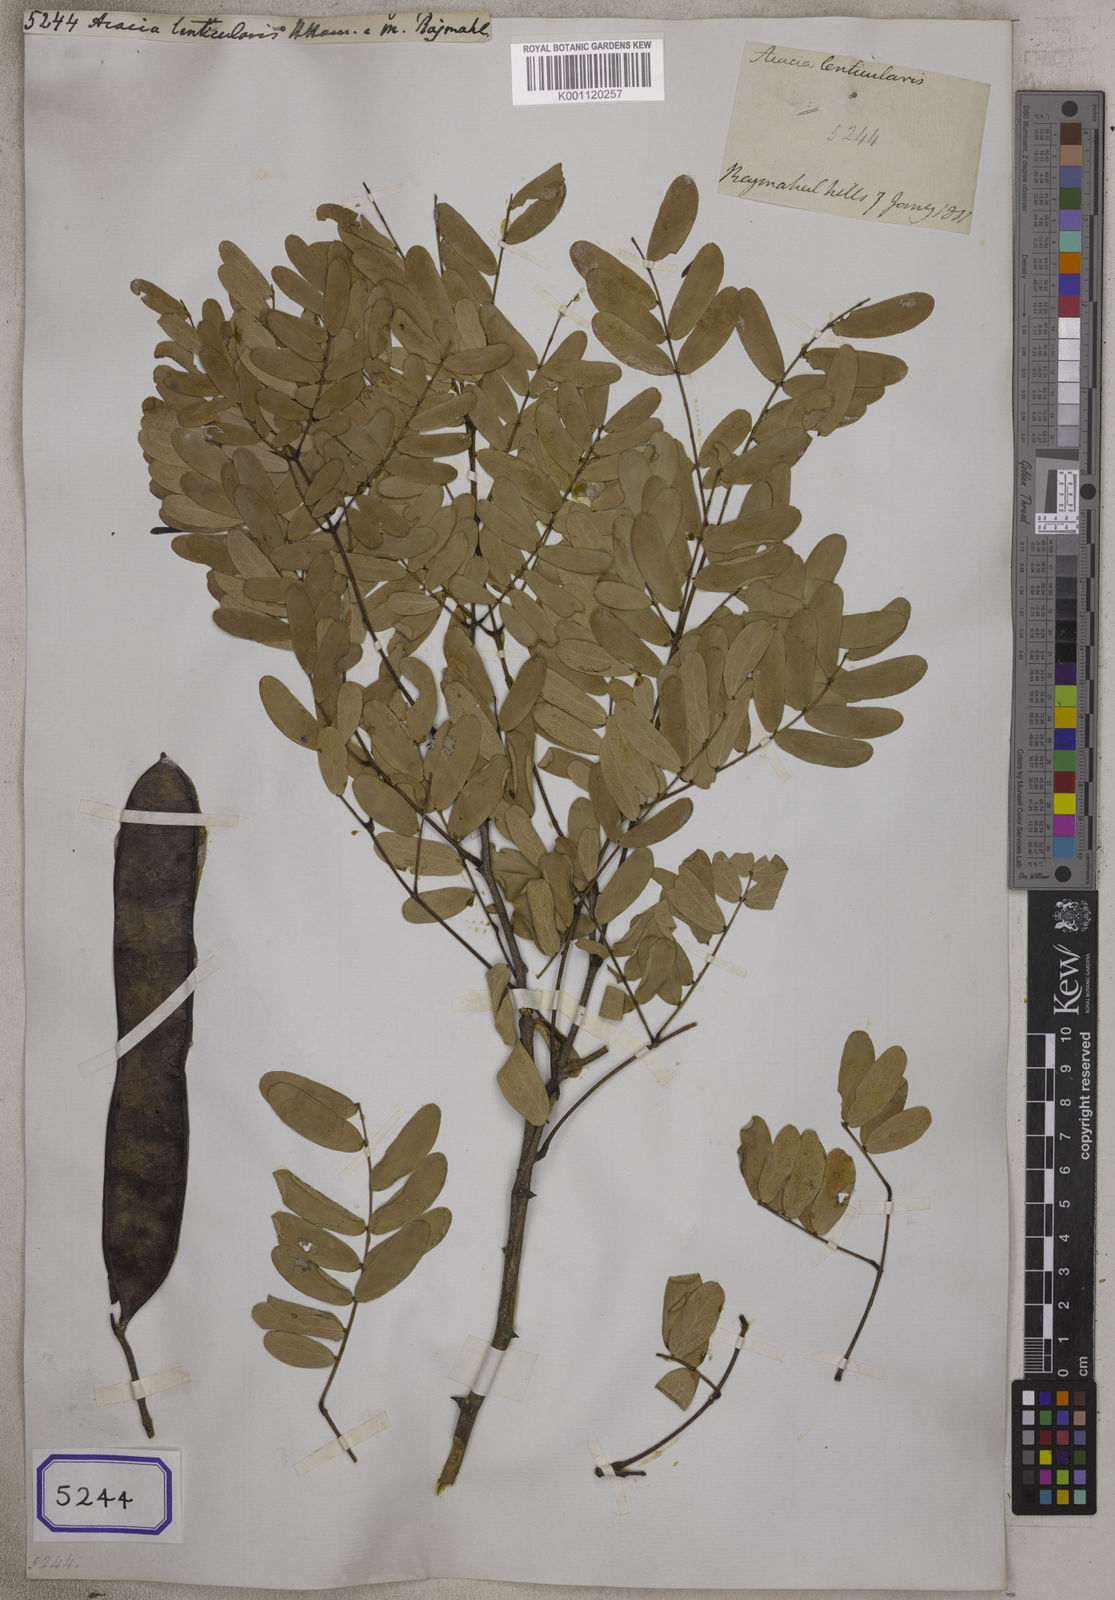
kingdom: Plantae
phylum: Tracheophyta
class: Magnoliopsida
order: Fabales
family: Fabaceae
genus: Acacia
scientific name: Acacia
